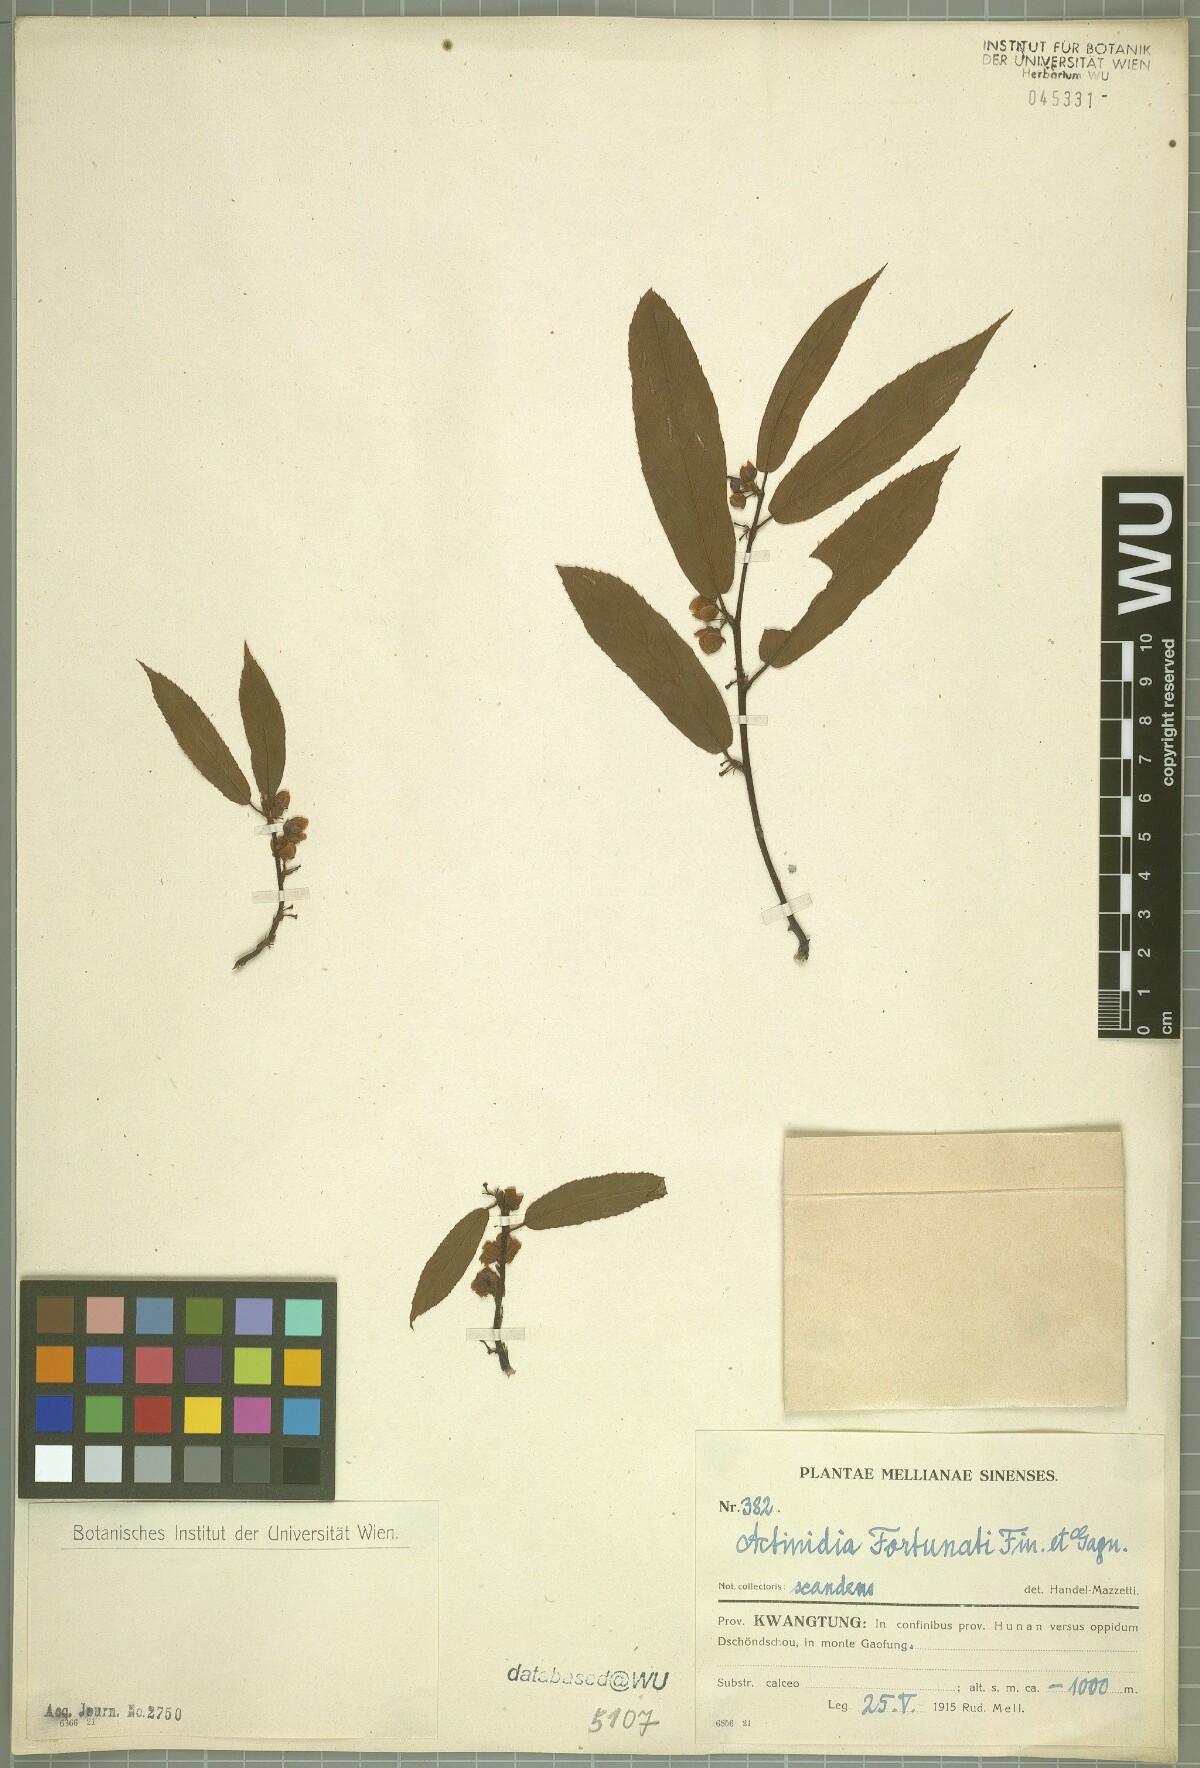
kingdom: Plantae
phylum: Tracheophyta
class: Magnoliopsida
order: Ericales
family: Actinidiaceae
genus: Actinidia
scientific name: Actinidia fortunatii
